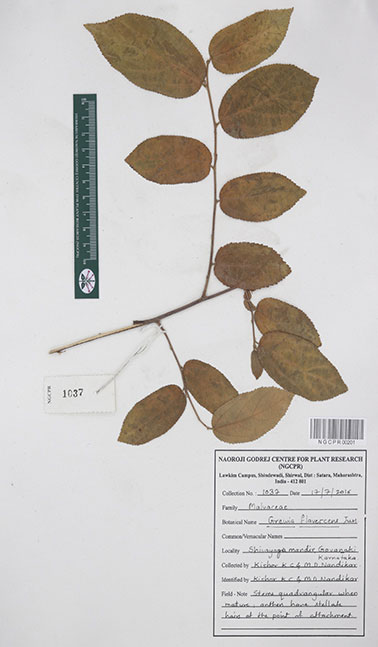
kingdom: Plantae
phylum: Tracheophyta
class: Magnoliopsida
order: Malvales
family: Malvaceae
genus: Grewia
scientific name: Grewia flavescens
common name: Sandpaper raisin
